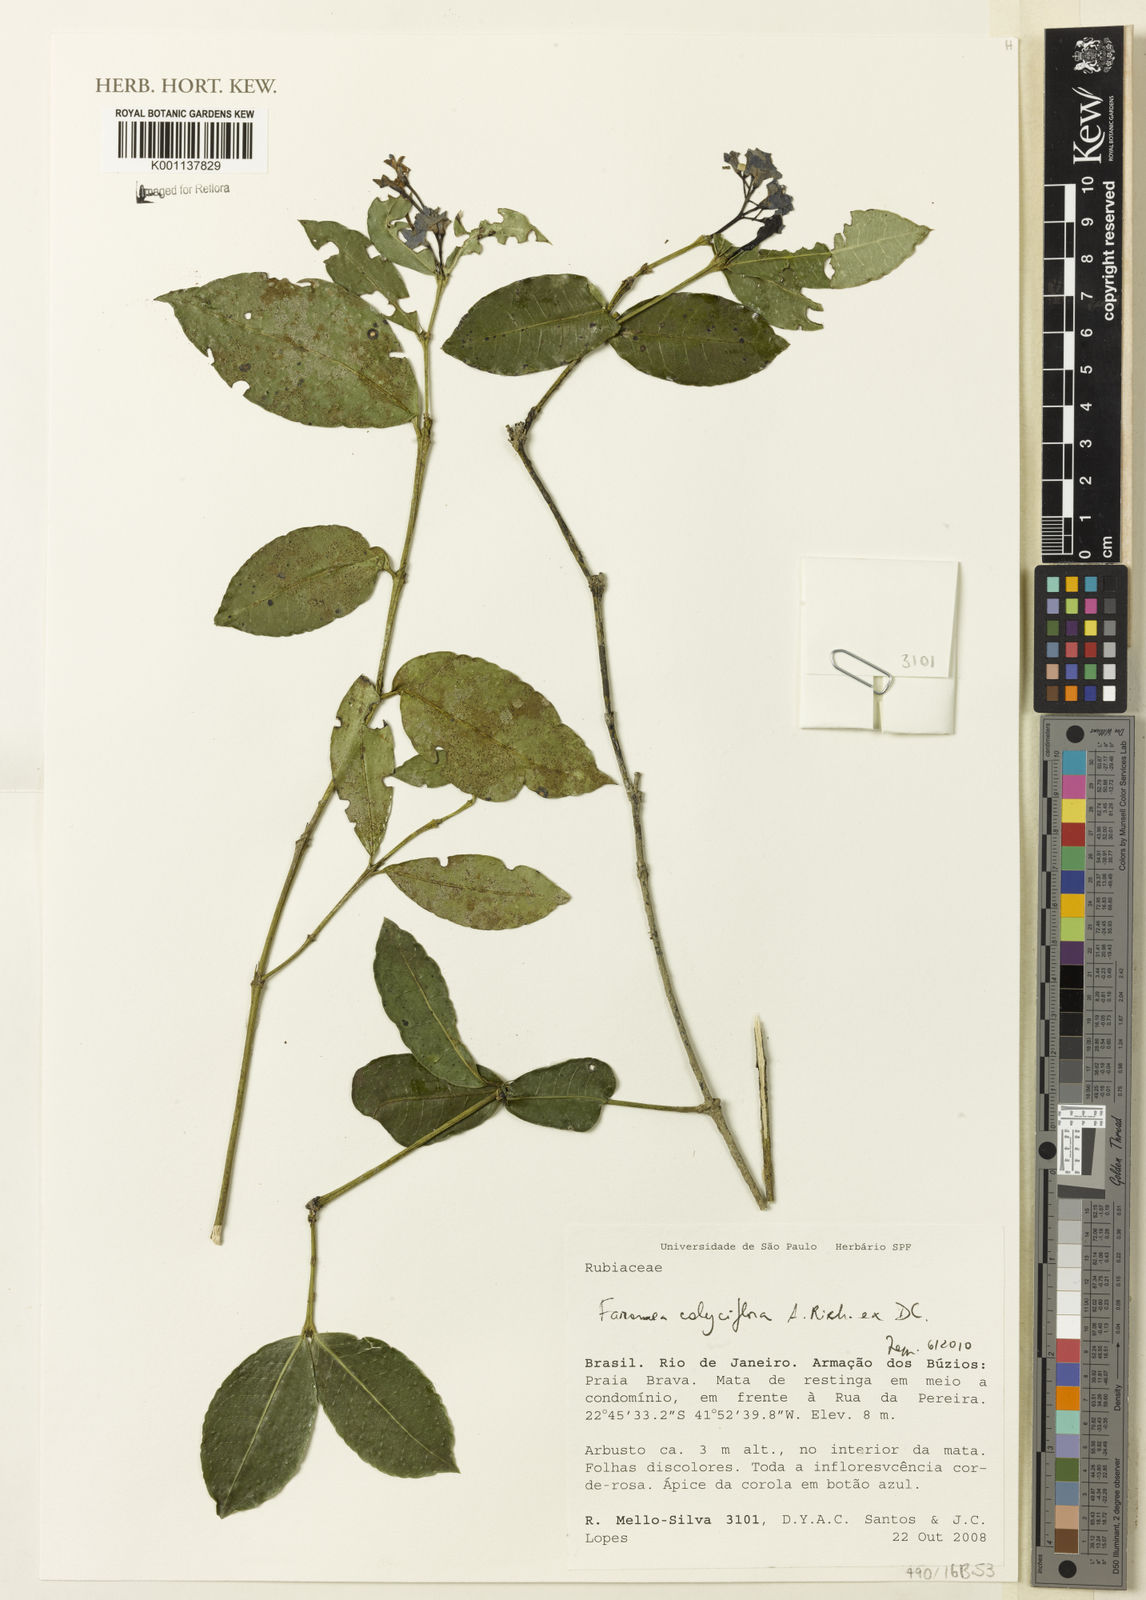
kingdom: Plantae
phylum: Tracheophyta
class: Magnoliopsida
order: Gentianales
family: Rubiaceae
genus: Faramea
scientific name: Faramea calyciflora
